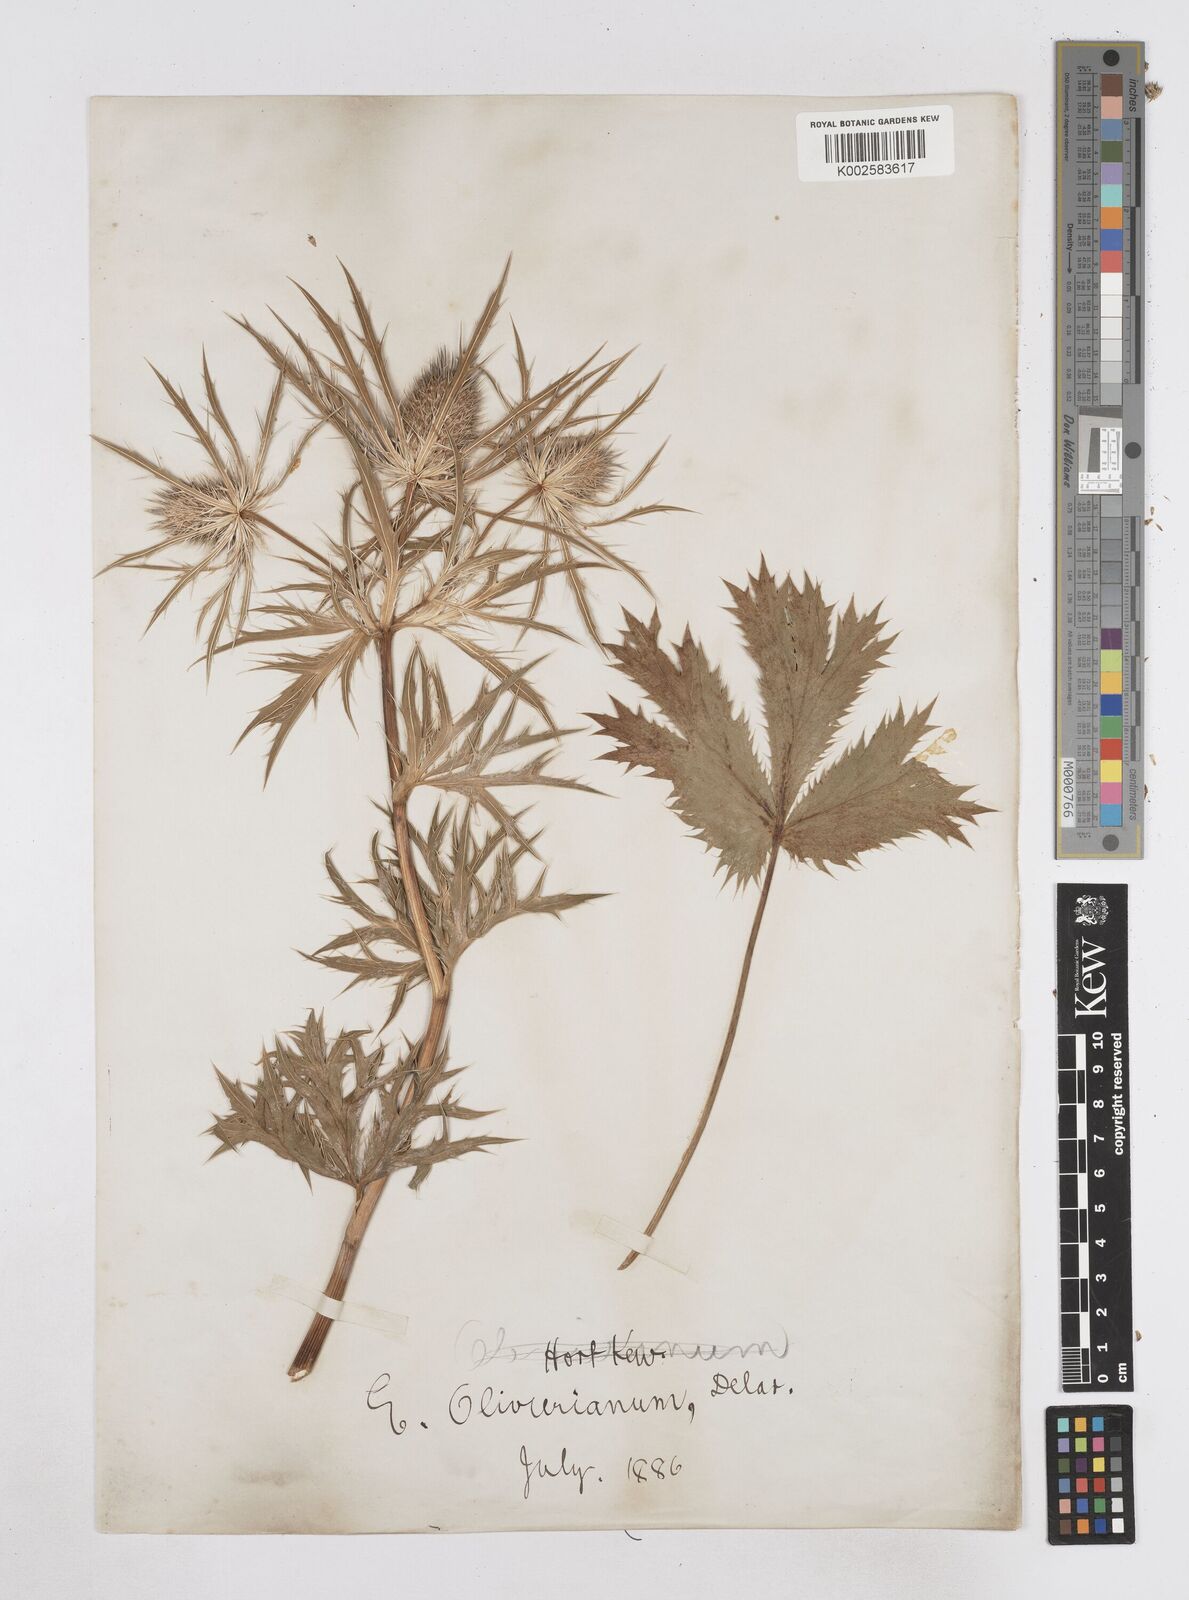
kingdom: Plantae
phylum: Tracheophyta
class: Magnoliopsida
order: Apiales
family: Apiaceae
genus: Eryngium
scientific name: Eryngium oliverianum
